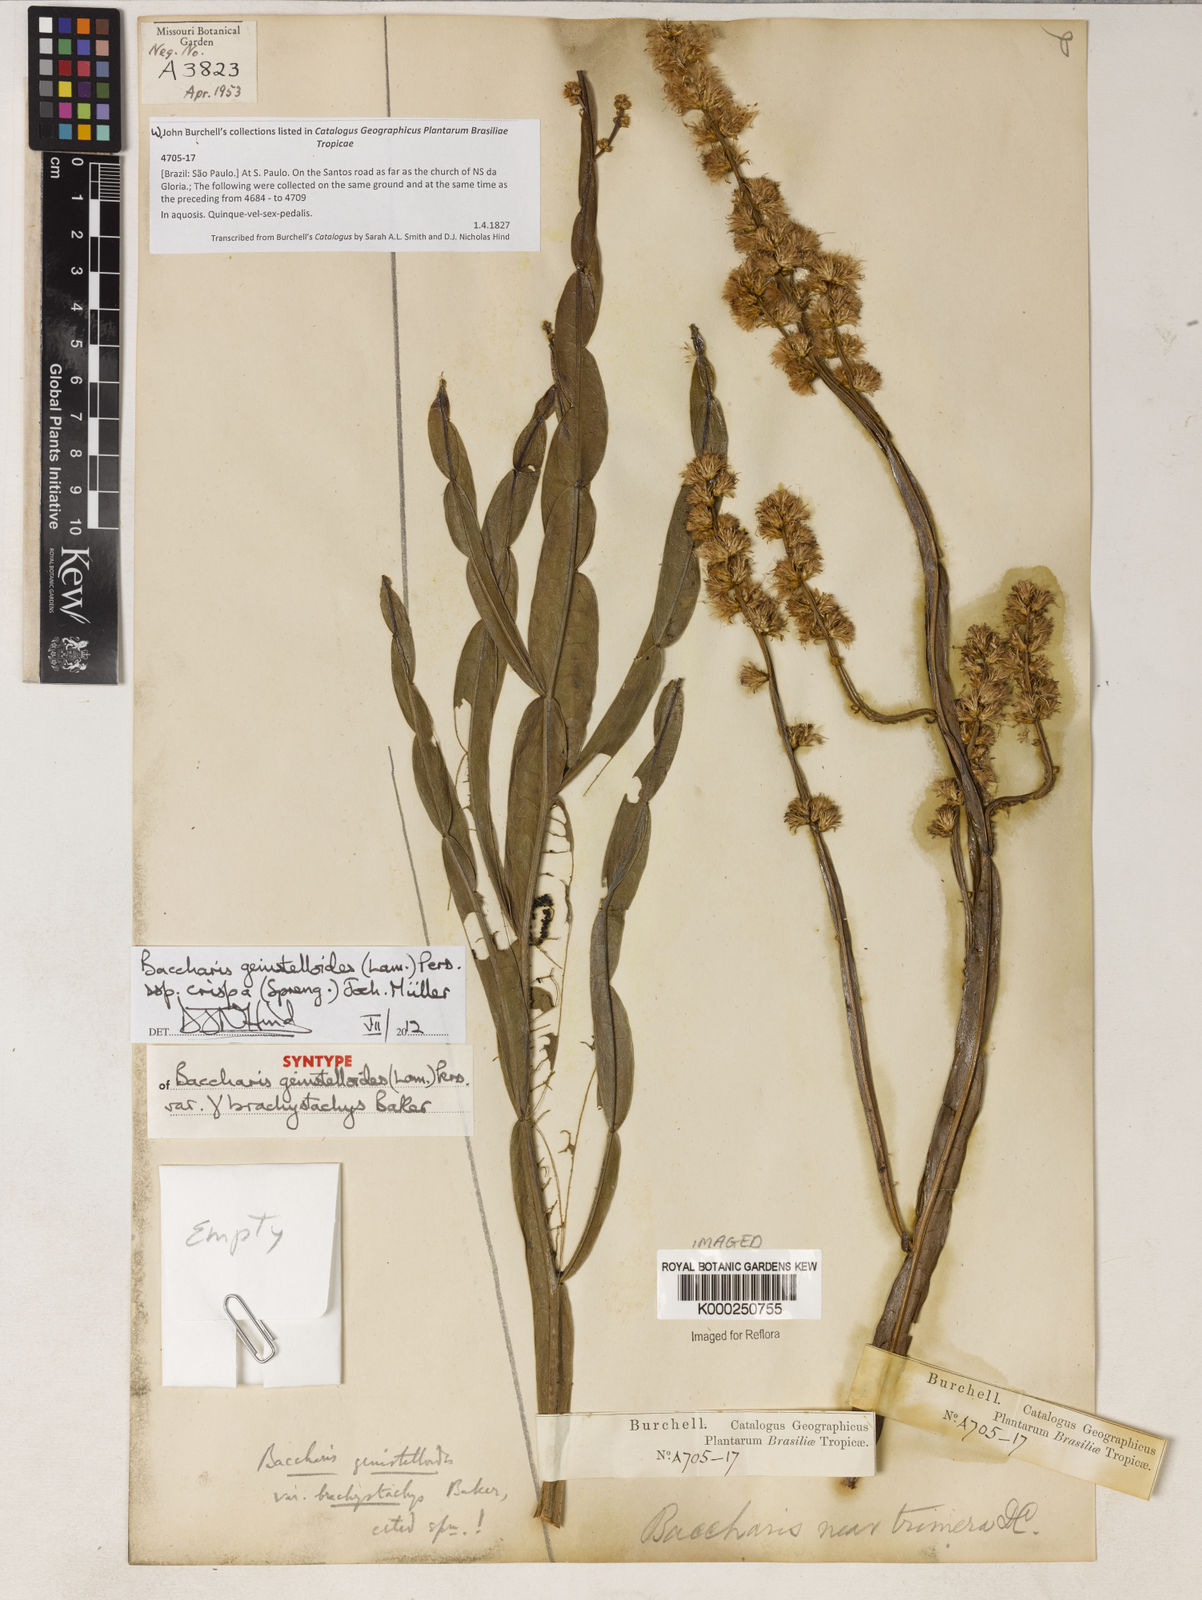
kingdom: Plantae
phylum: Tracheophyta
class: Magnoliopsida
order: Asterales
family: Asteraceae
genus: Baccharis
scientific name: Baccharis brachystachys
